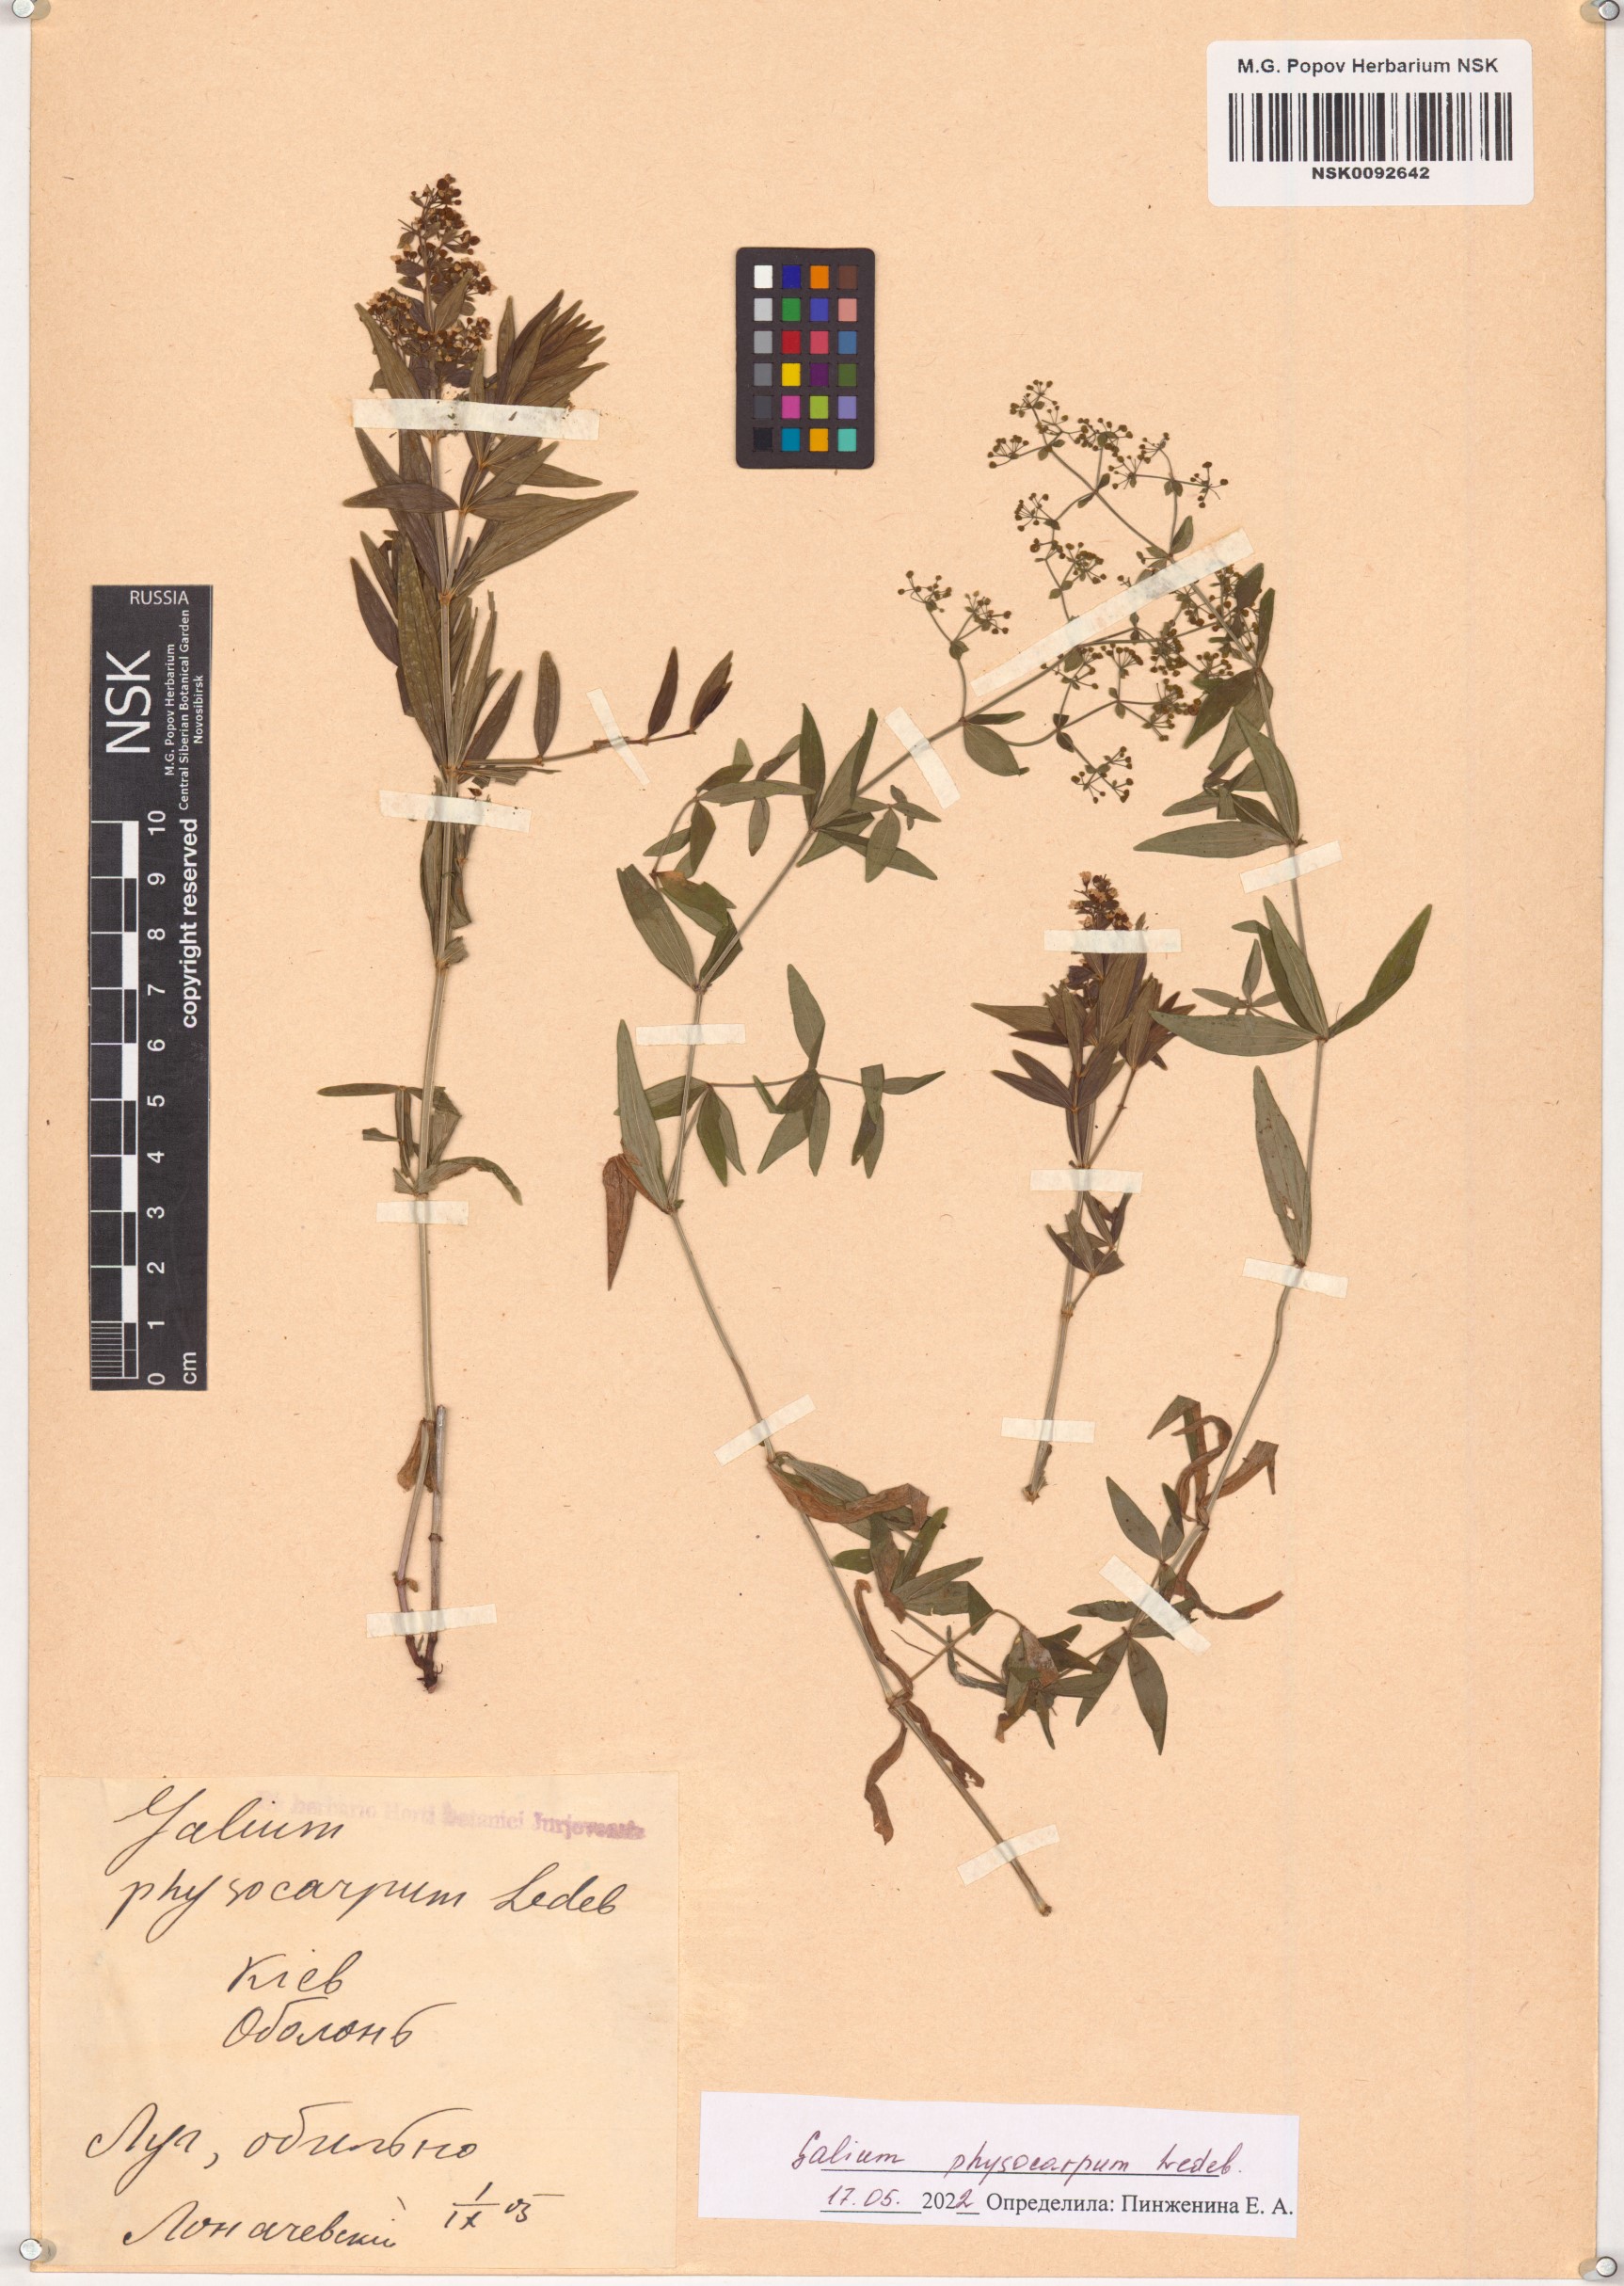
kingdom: Plantae
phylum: Tracheophyta
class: Magnoliopsida
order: Gentianales
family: Rubiaceae
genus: Galium
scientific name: Galium rubioides
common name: European bedstraw
